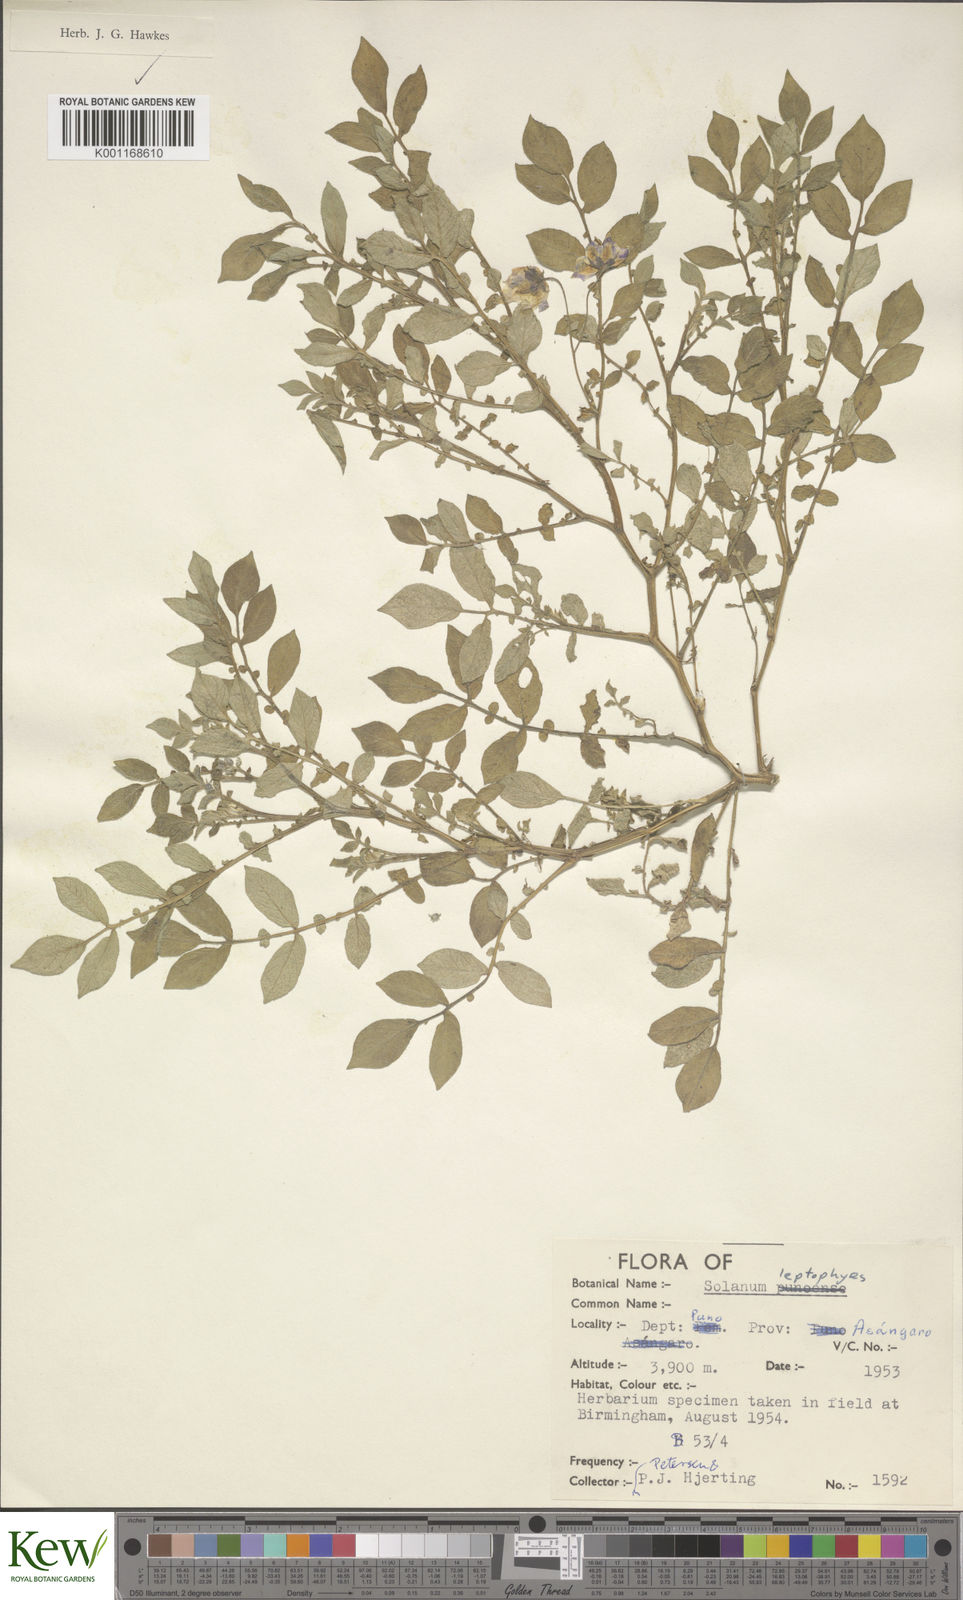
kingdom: Plantae
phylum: Tracheophyta
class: Magnoliopsida
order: Solanales
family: Solanaceae
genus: Solanum
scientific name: Solanum candolleanum
